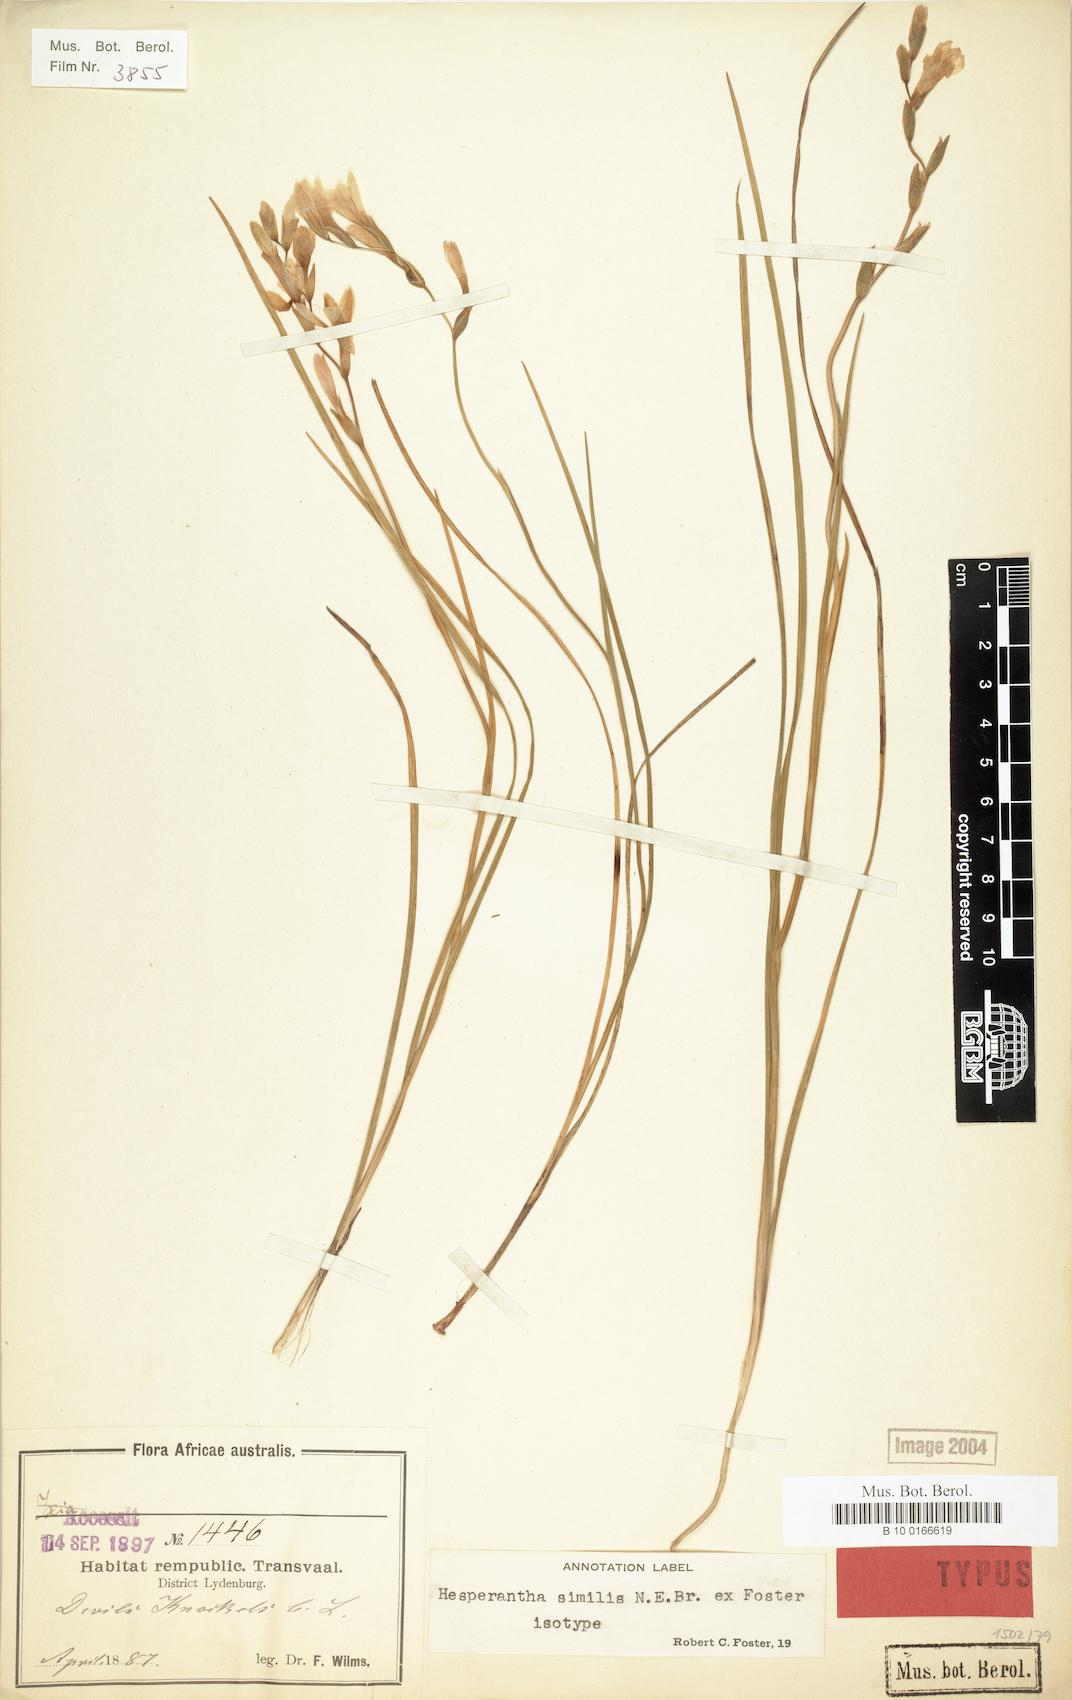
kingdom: Plantae
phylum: Tracheophyta
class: Liliopsida
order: Asparagales
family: Iridaceae
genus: Hesperantha
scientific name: Hesperantha schlechteri
